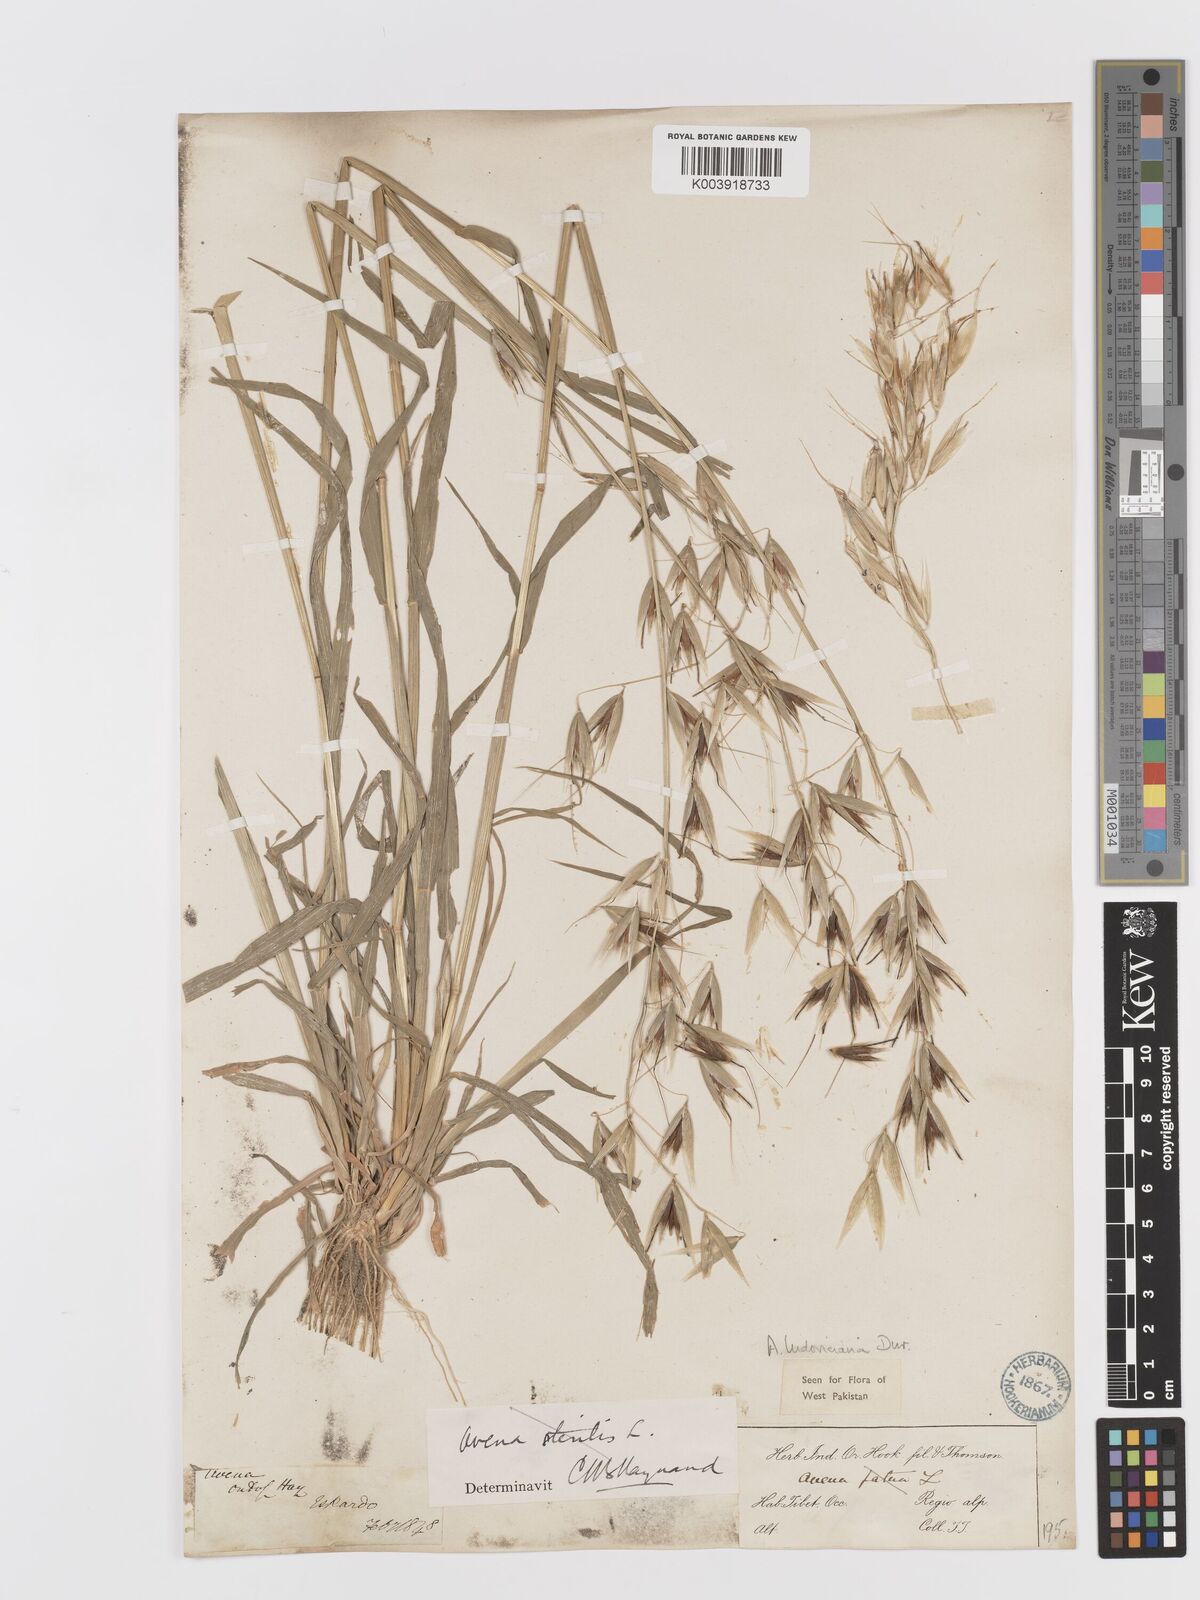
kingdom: Plantae
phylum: Tracheophyta
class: Liliopsida
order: Poales
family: Poaceae
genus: Avena
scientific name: Avena sterilis
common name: Animated oat
